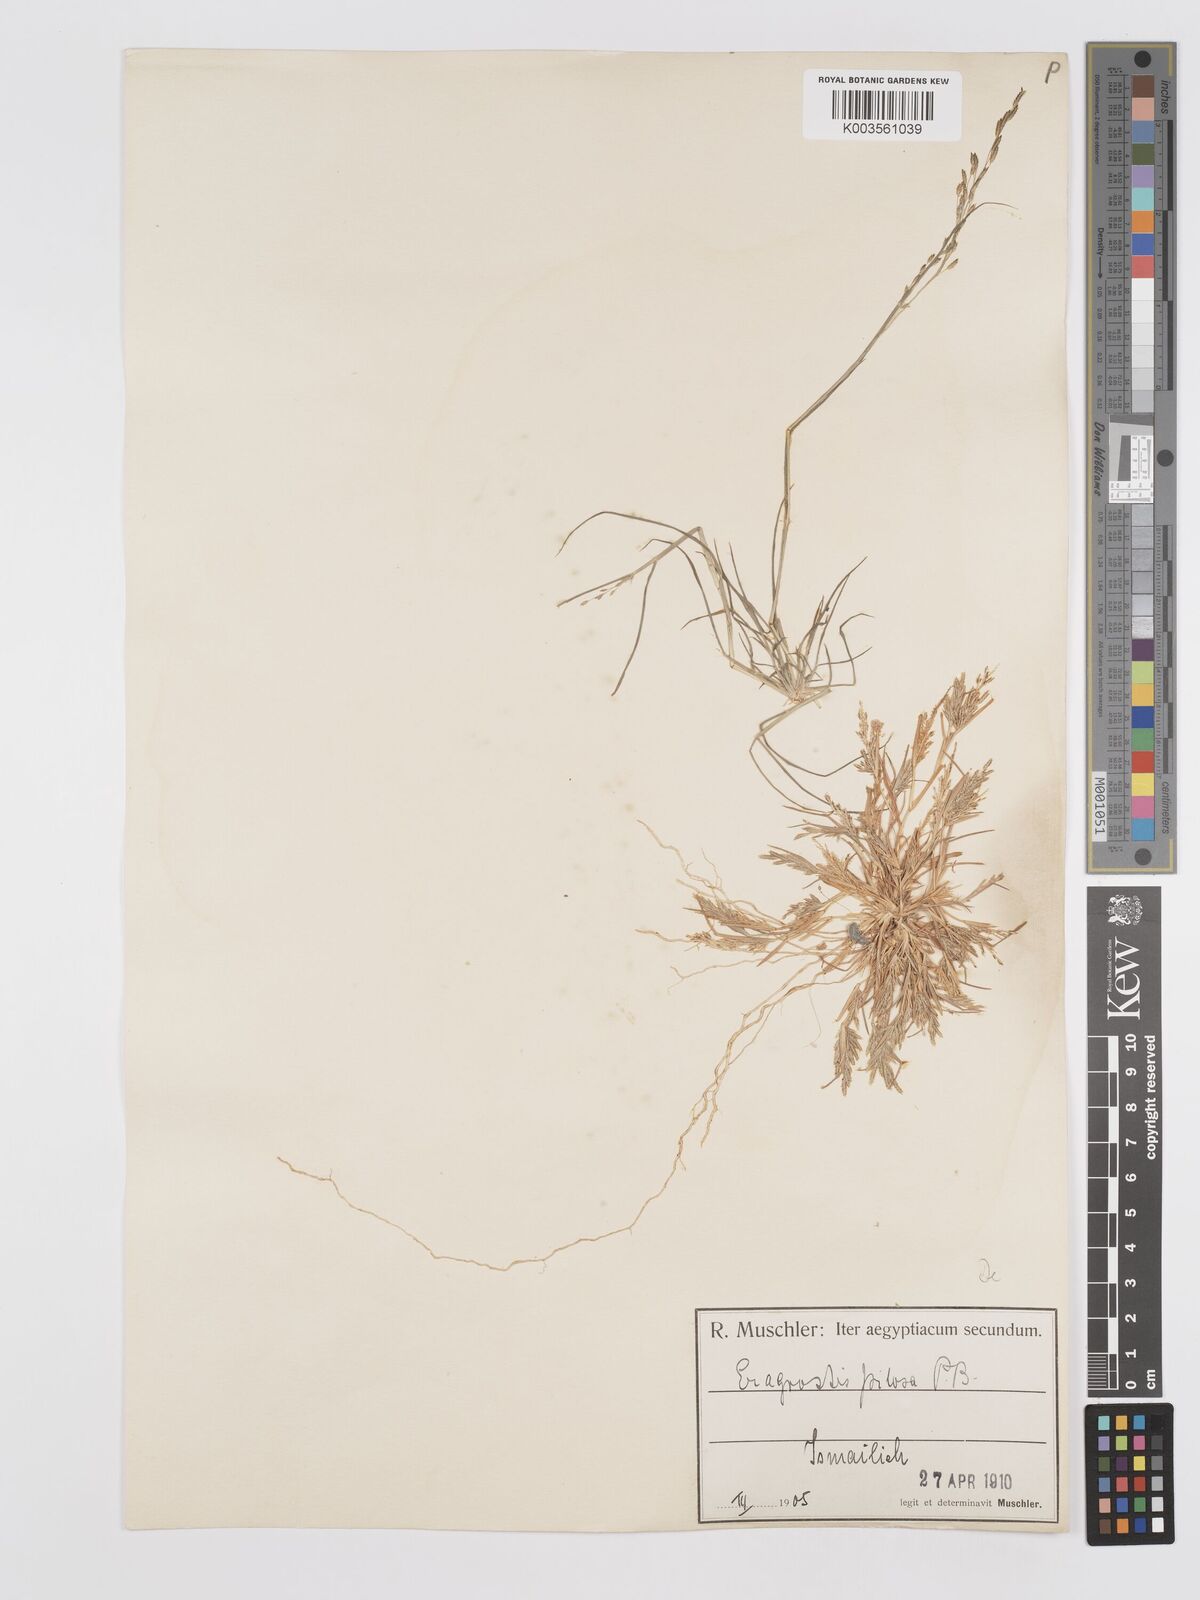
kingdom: Plantae
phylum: Tracheophyta
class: Liliopsida
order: Poales
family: Poaceae
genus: Eragrostis
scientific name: Eragrostis aegyptiaca
